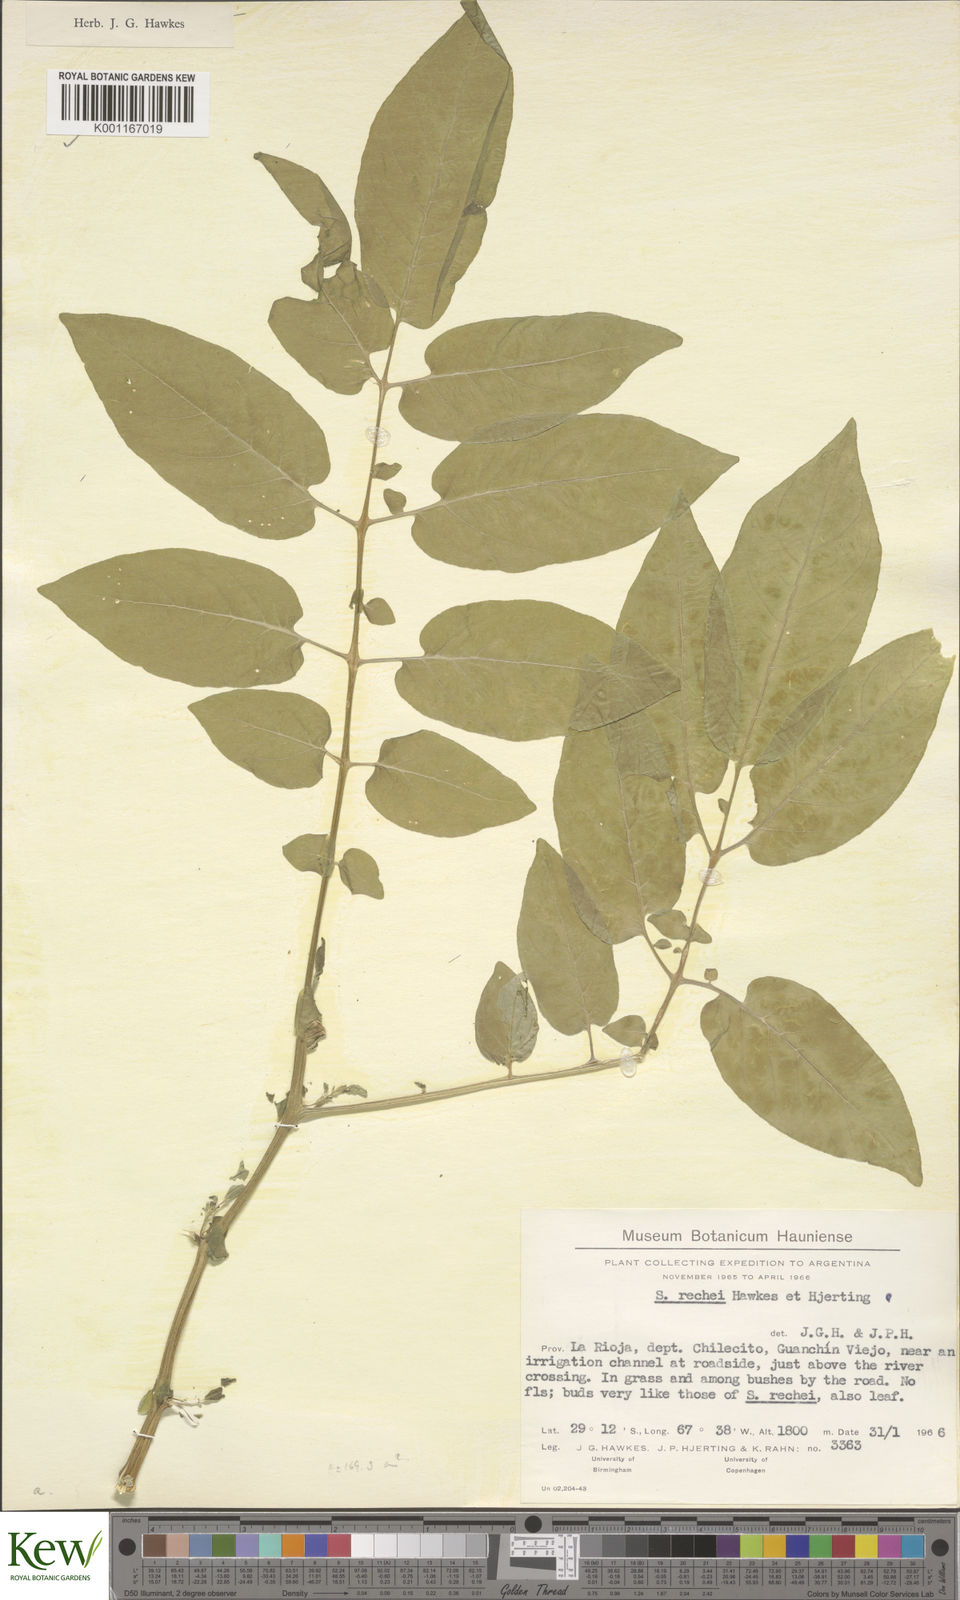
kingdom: Plantae
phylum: Tracheophyta
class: Magnoliopsida
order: Solanales
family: Solanaceae
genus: Solanum
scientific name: Solanum rechei
